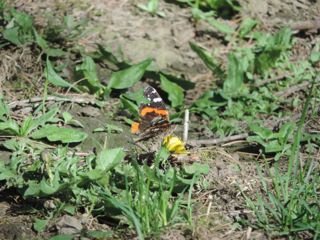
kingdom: Animalia
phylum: Arthropoda
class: Insecta
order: Lepidoptera
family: Nymphalidae
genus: Vanessa
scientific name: Vanessa atalanta
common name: Red Admiral
